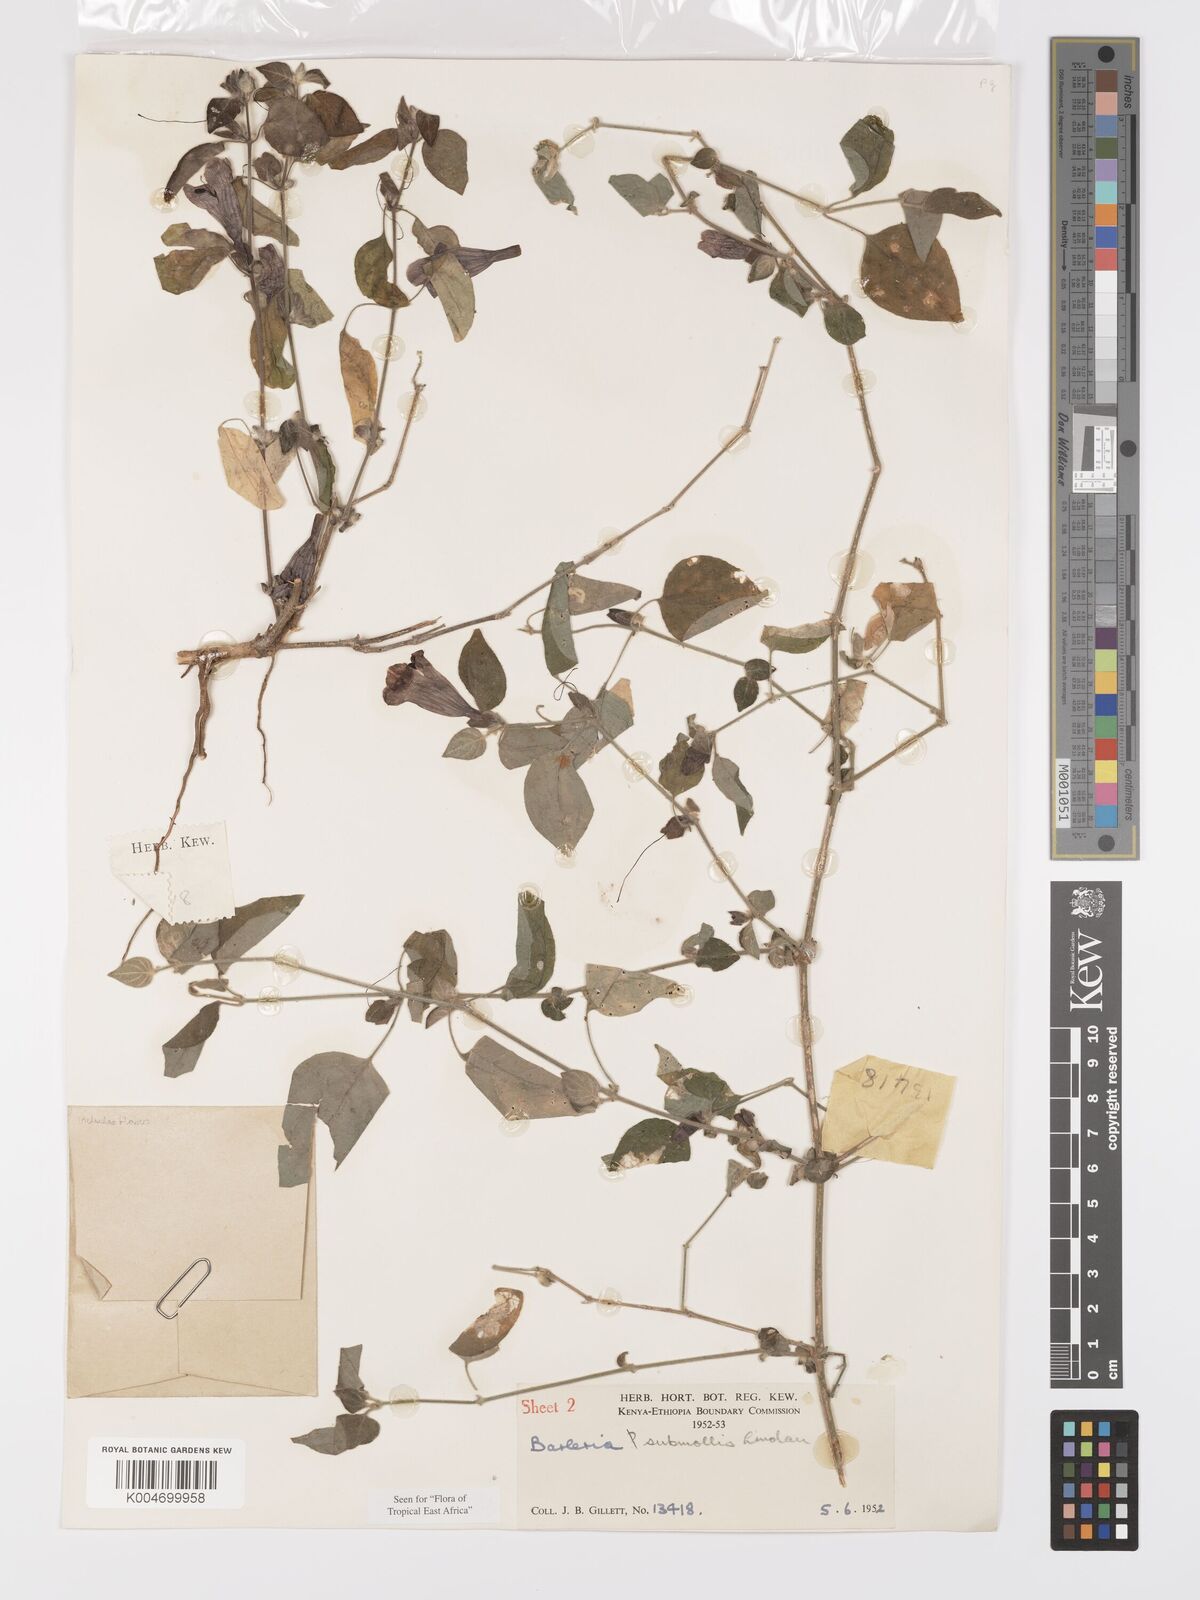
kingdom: Plantae
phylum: Tracheophyta
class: Magnoliopsida
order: Lamiales
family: Acanthaceae
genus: Barleria
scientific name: Barleria submollis
